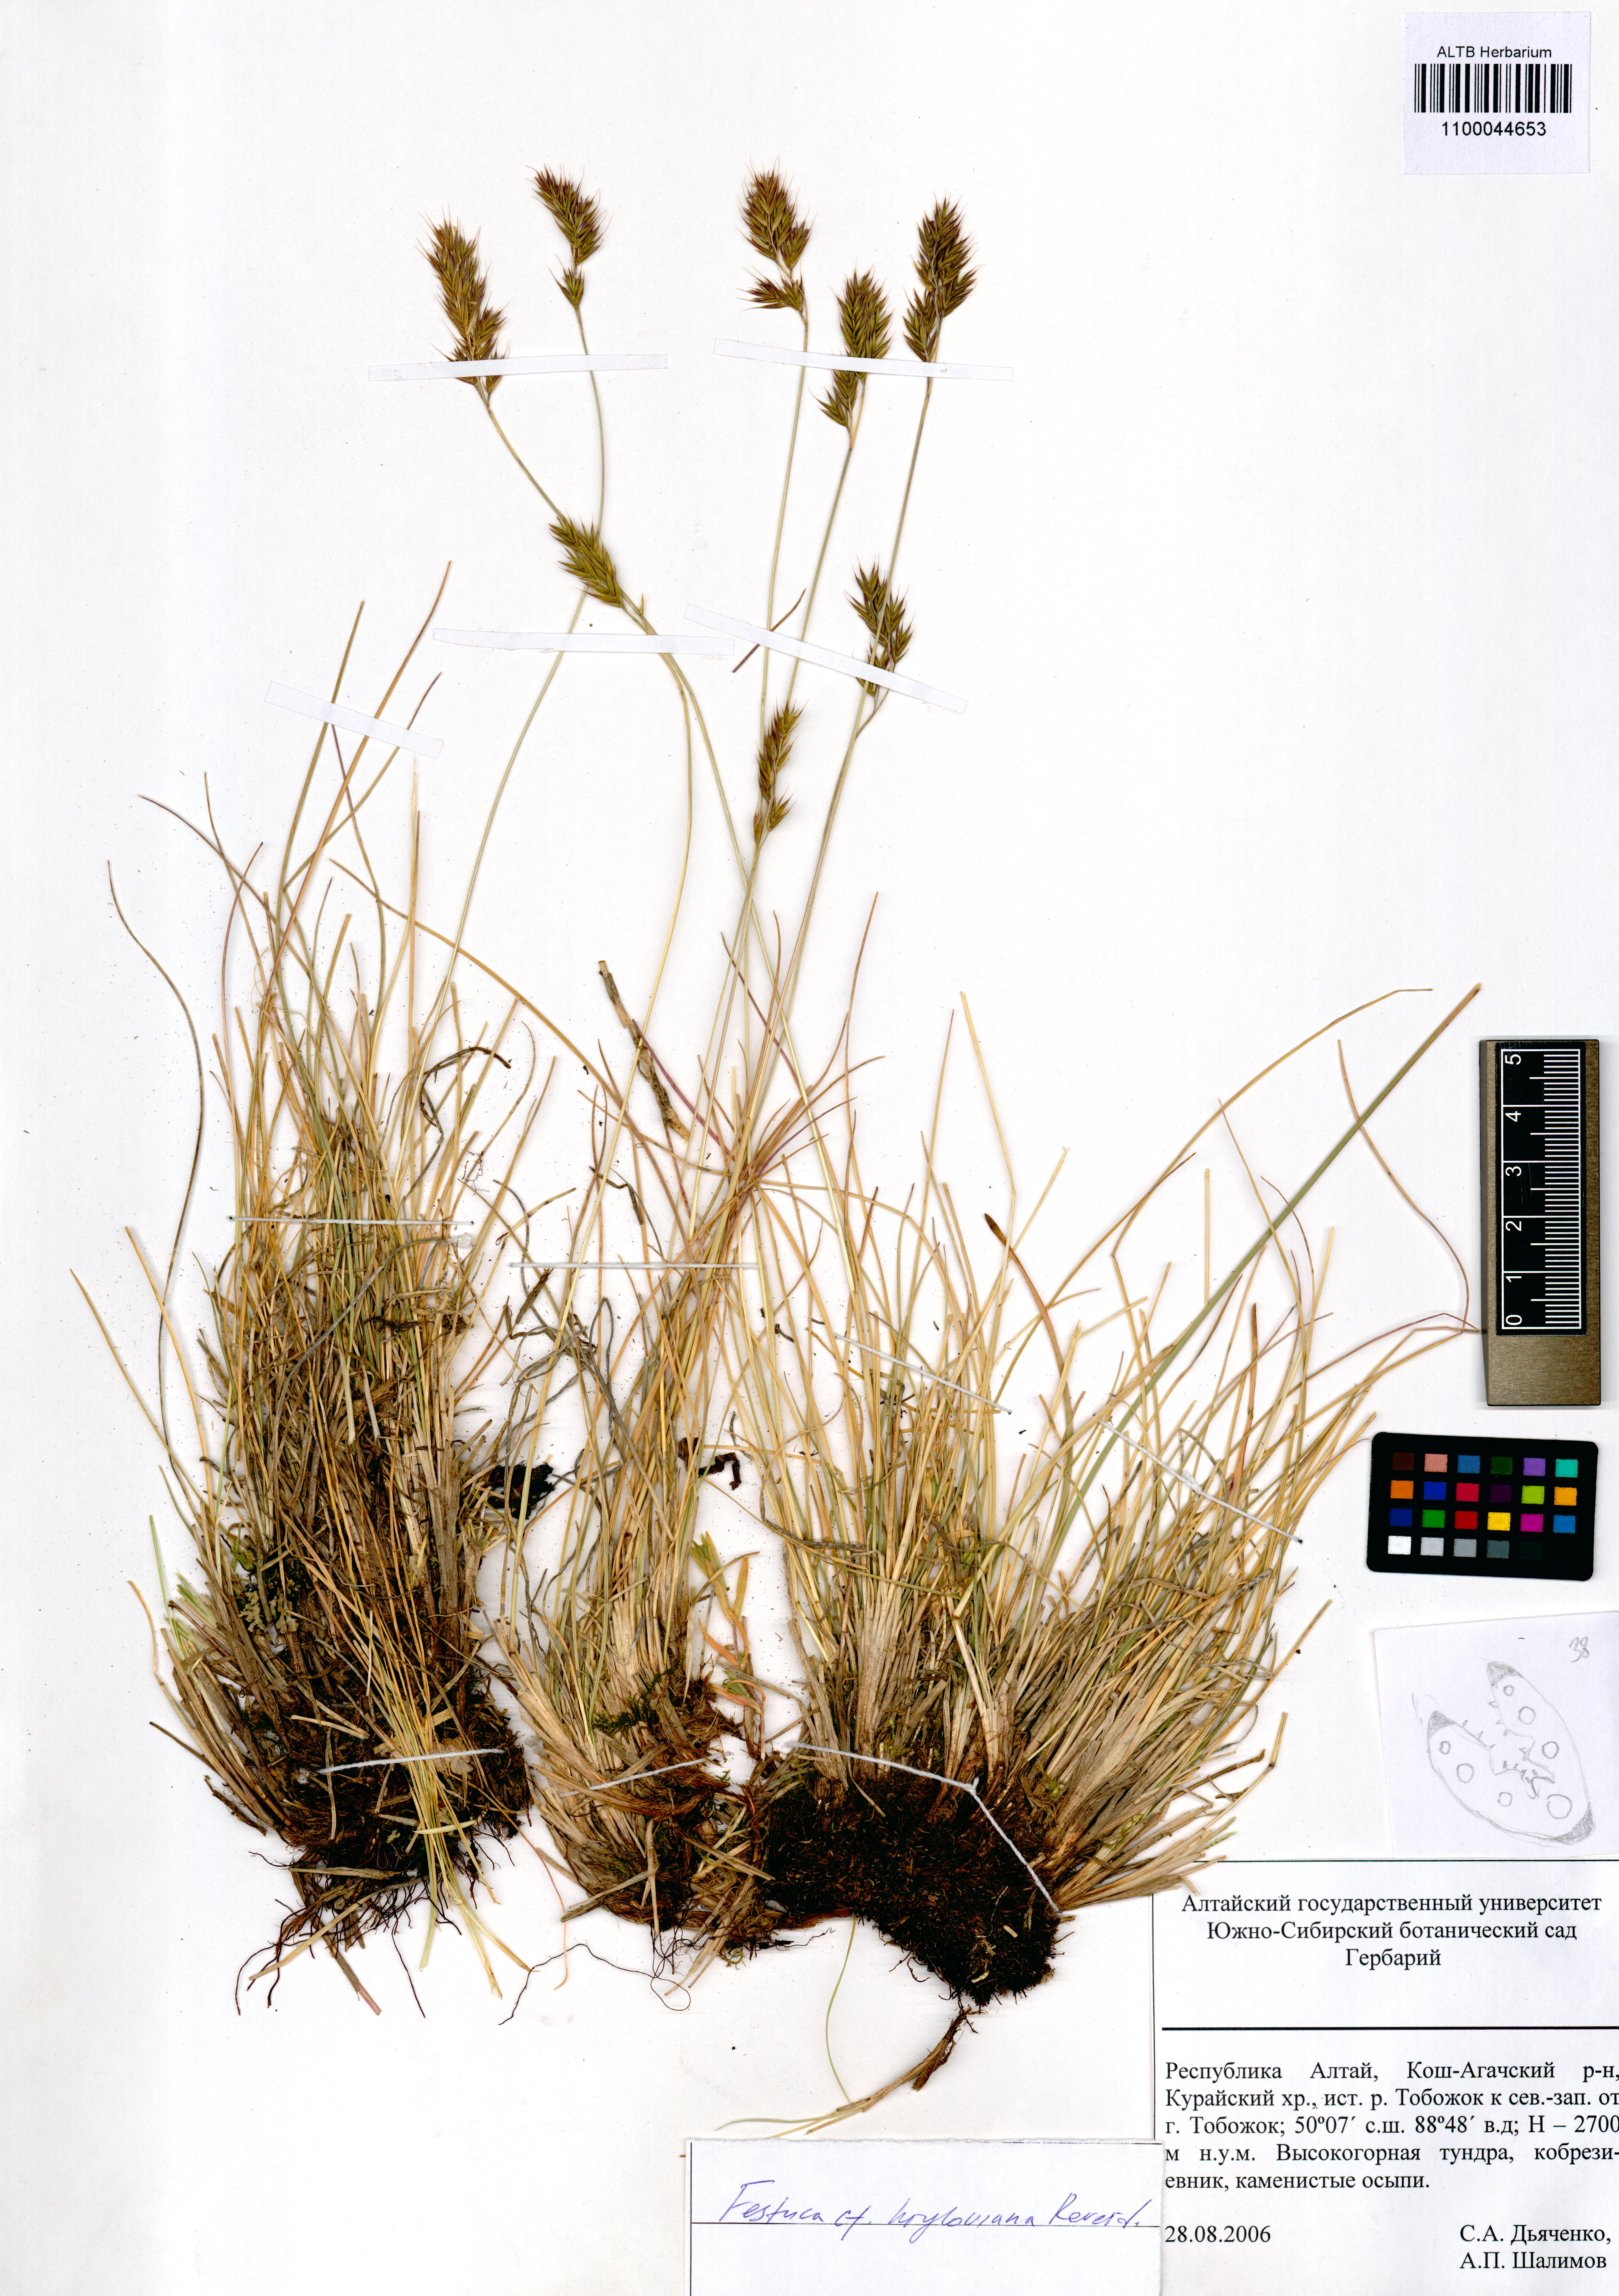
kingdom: Plantae
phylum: Tracheophyta
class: Liliopsida
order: Poales
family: Poaceae
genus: Festuca
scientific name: Festuca kryloviana
